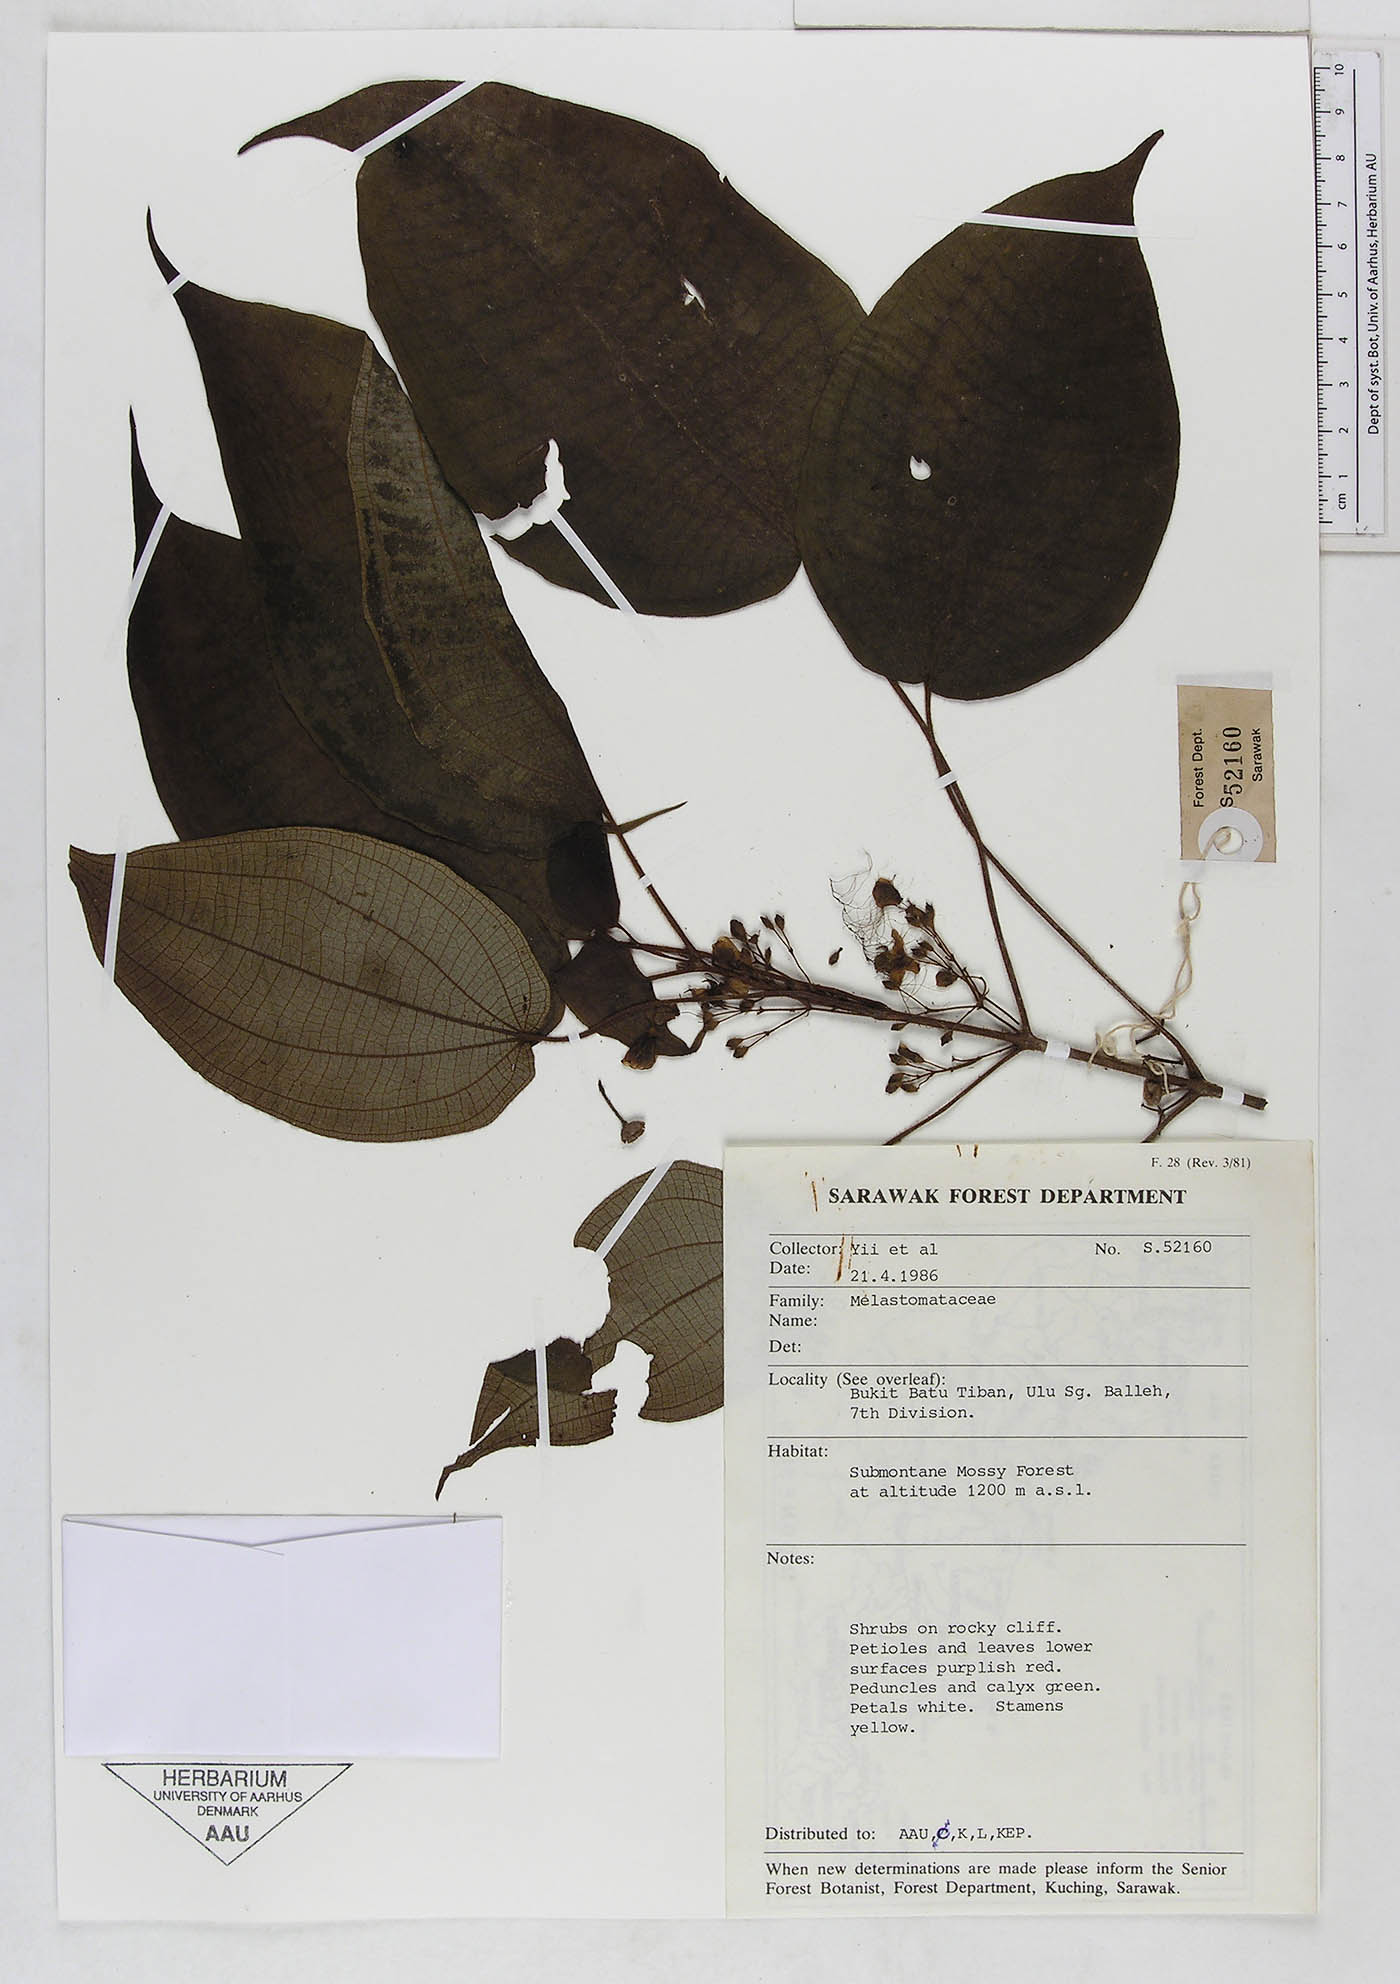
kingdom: Plantae
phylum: Tracheophyta
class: Magnoliopsida
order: Myrtales
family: Melastomataceae
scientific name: Melastomataceae
